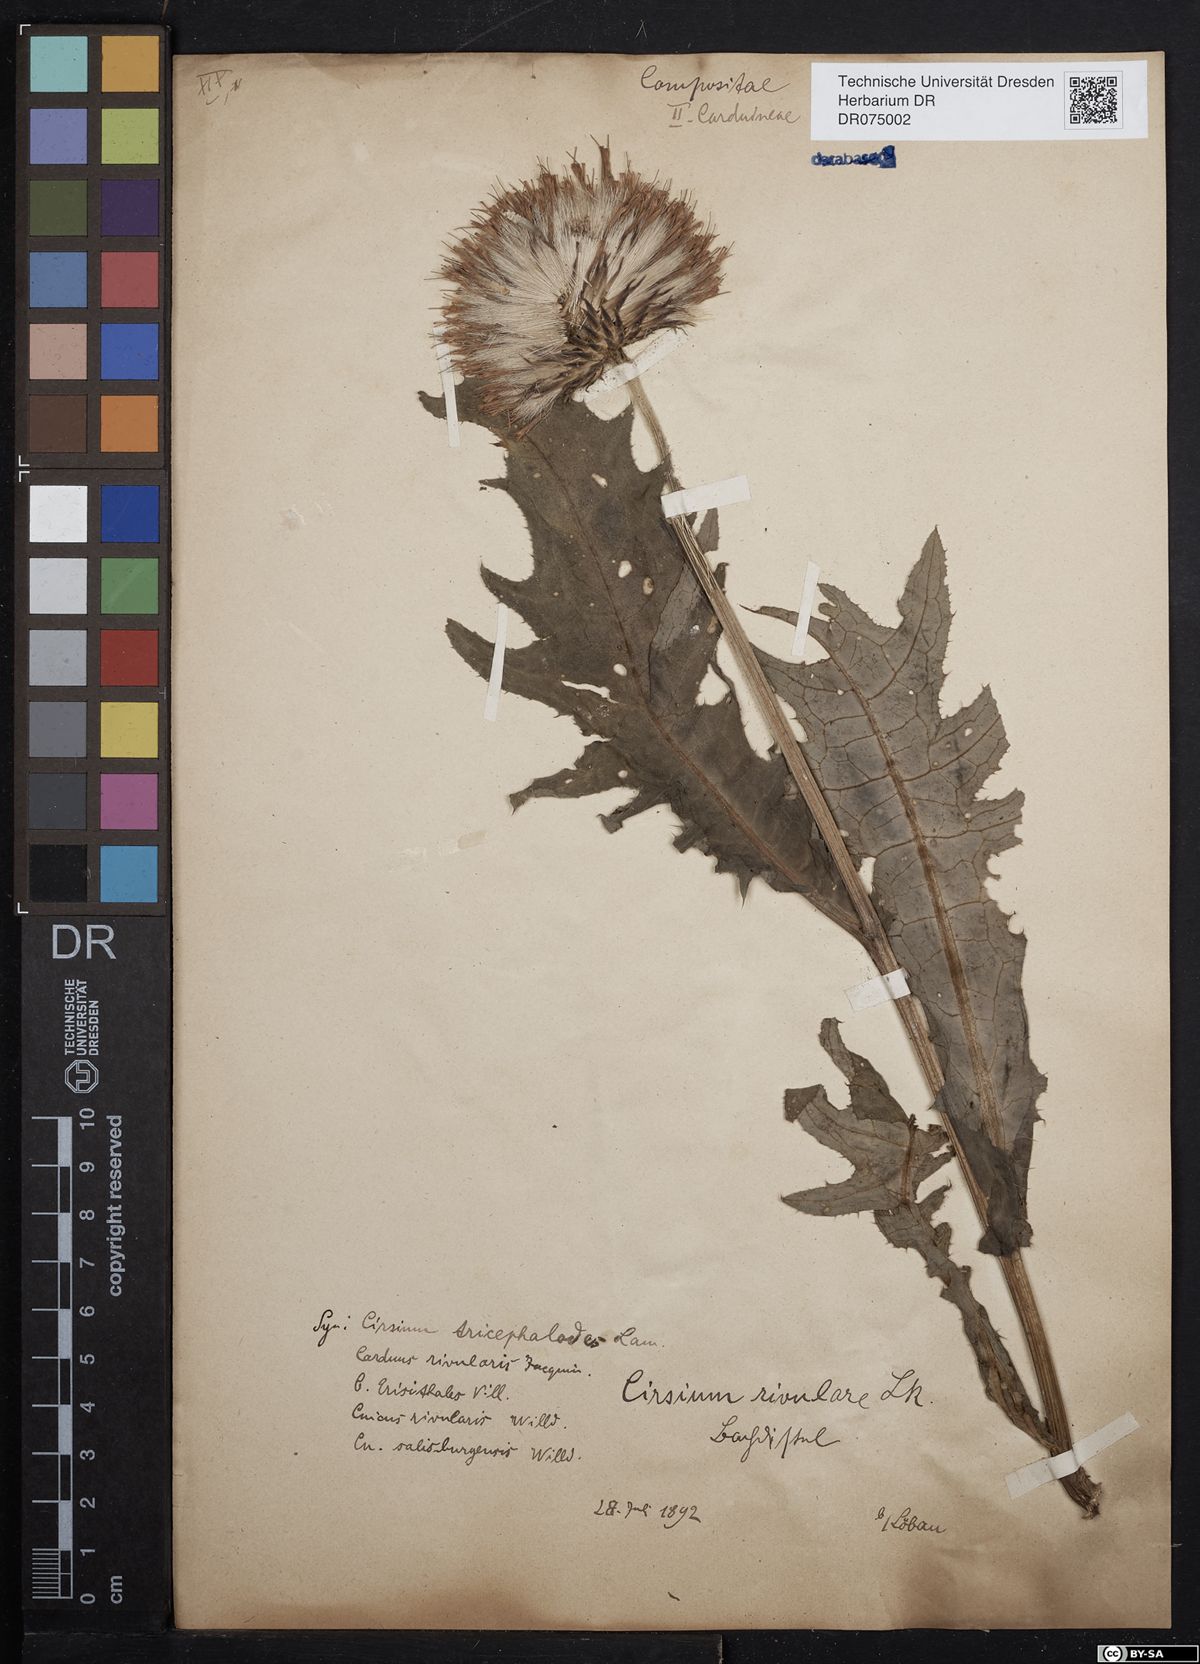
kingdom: Plantae
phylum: Tracheophyta
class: Magnoliopsida
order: Asterales
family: Asteraceae
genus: Cirsium
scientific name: Cirsium rivulare
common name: Brook thistle
